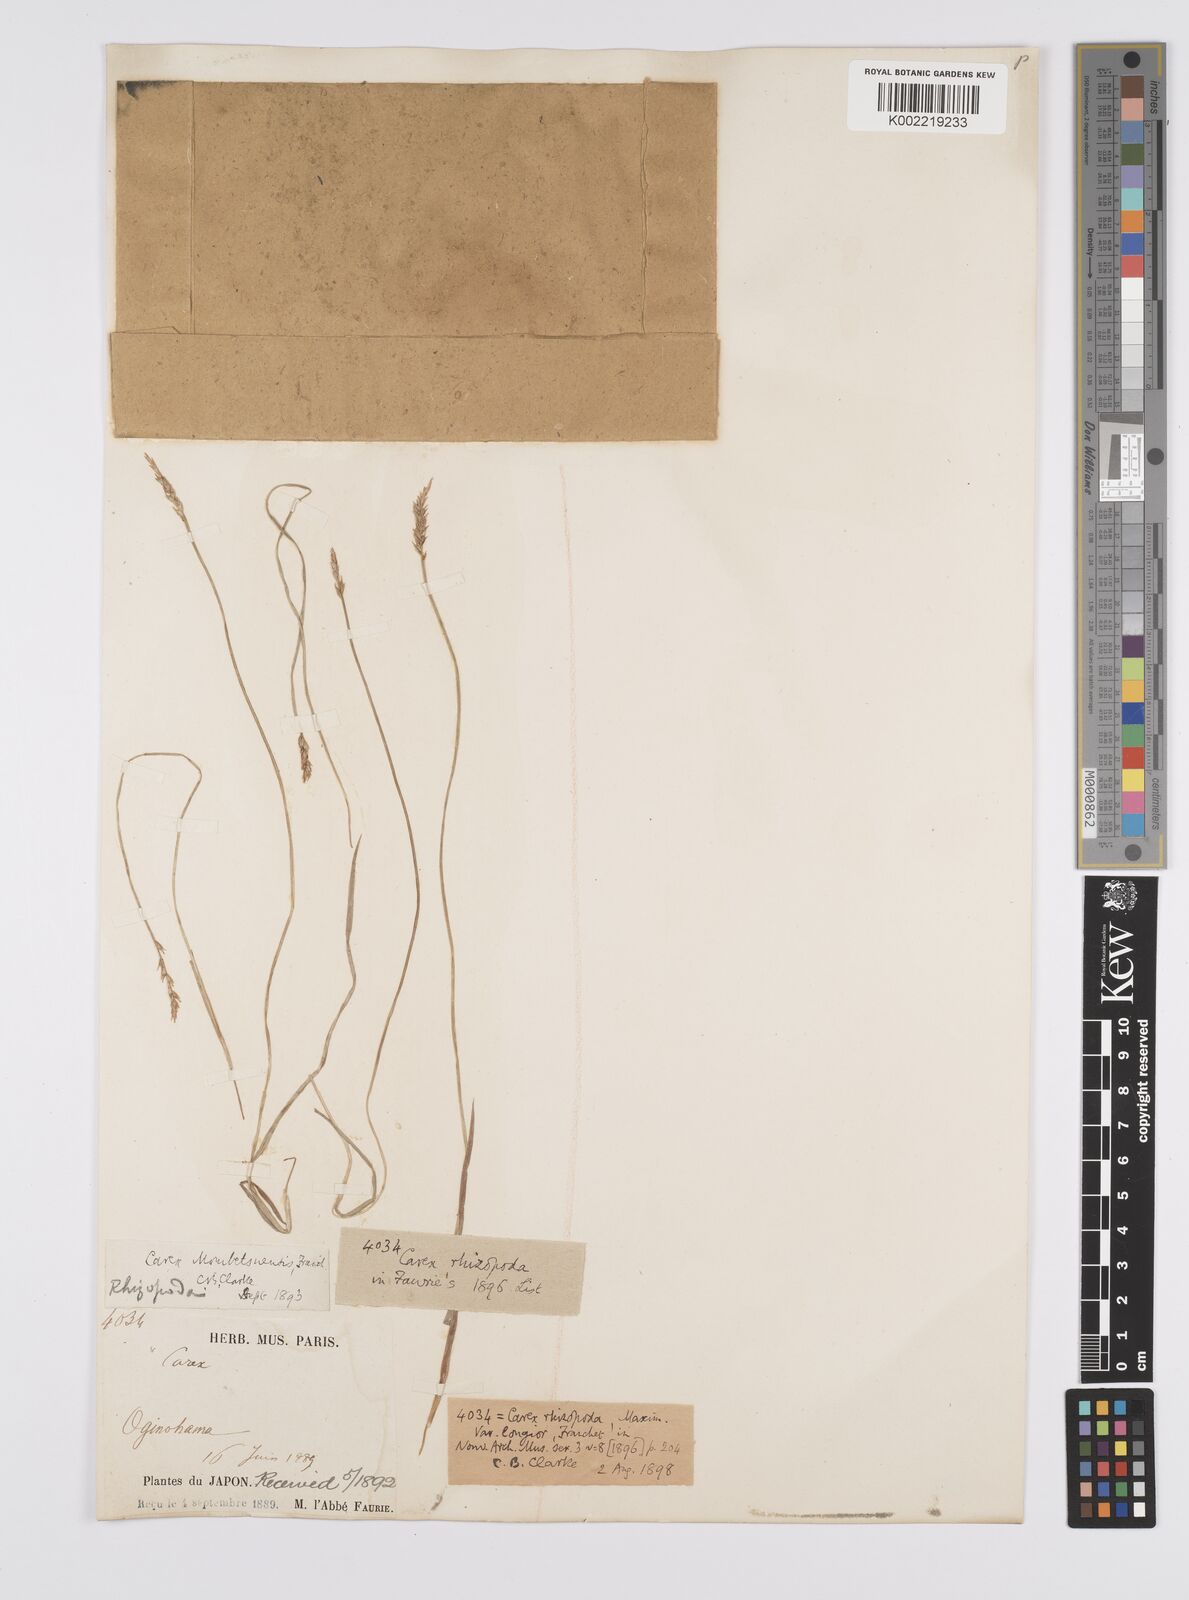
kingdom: Plantae
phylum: Tracheophyta
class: Liliopsida
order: Poales
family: Cyperaceae
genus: Carex
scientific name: Carex rhizopoda
